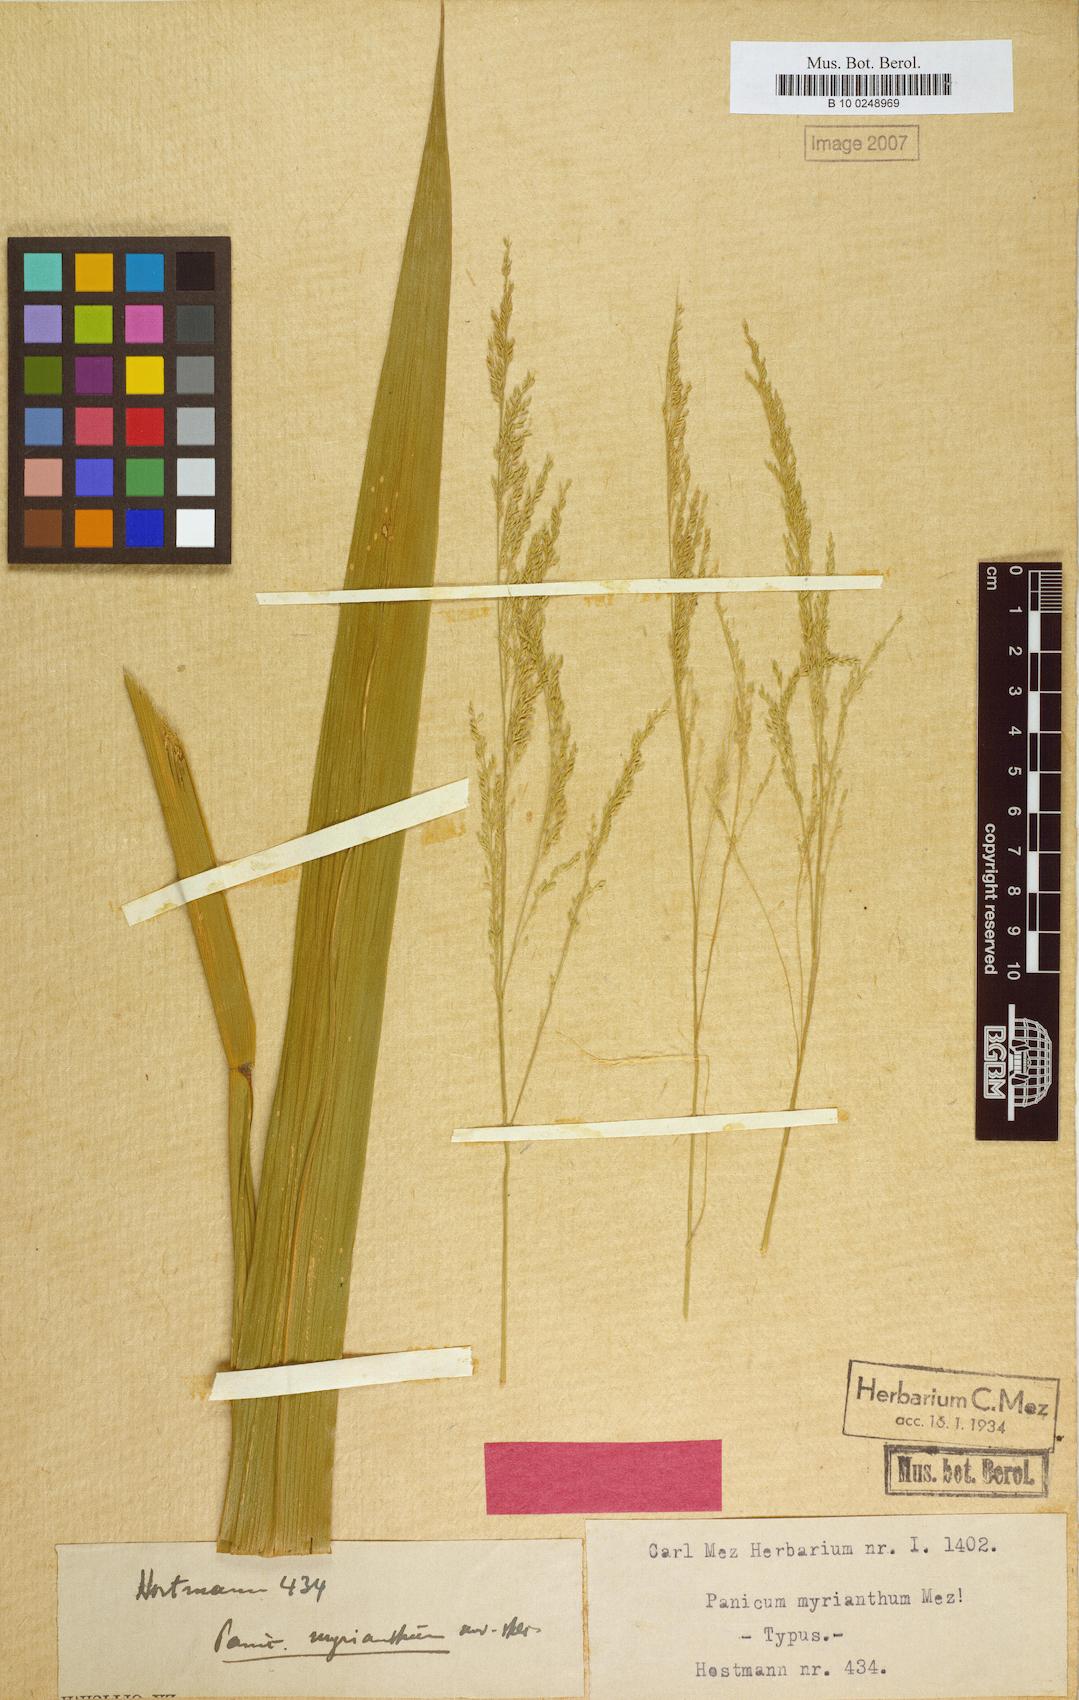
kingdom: Plantae
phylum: Tracheophyta
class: Liliopsida
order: Poales
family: Poaceae
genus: Hymenachne
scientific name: Hymenachne grandis
